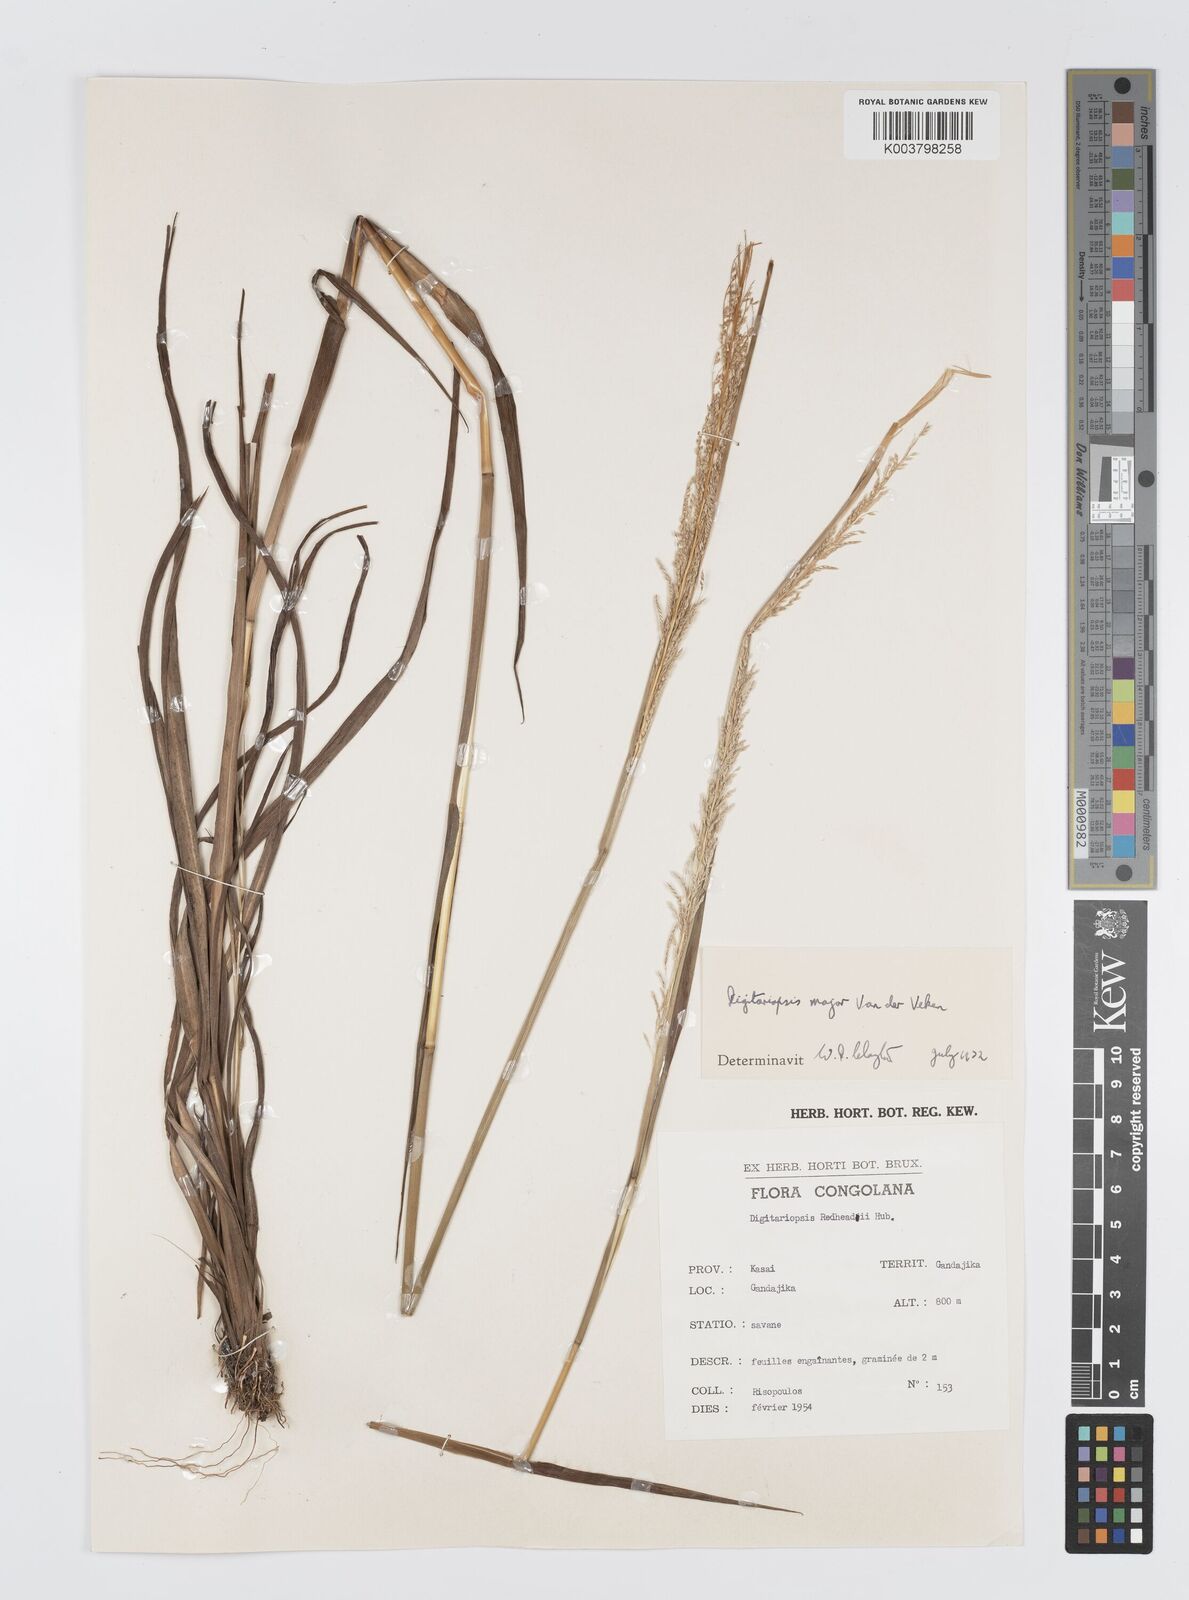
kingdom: Plantae
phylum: Tracheophyta
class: Liliopsida
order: Poales
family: Poaceae
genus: Digitaria
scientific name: Digitaria poggeana
